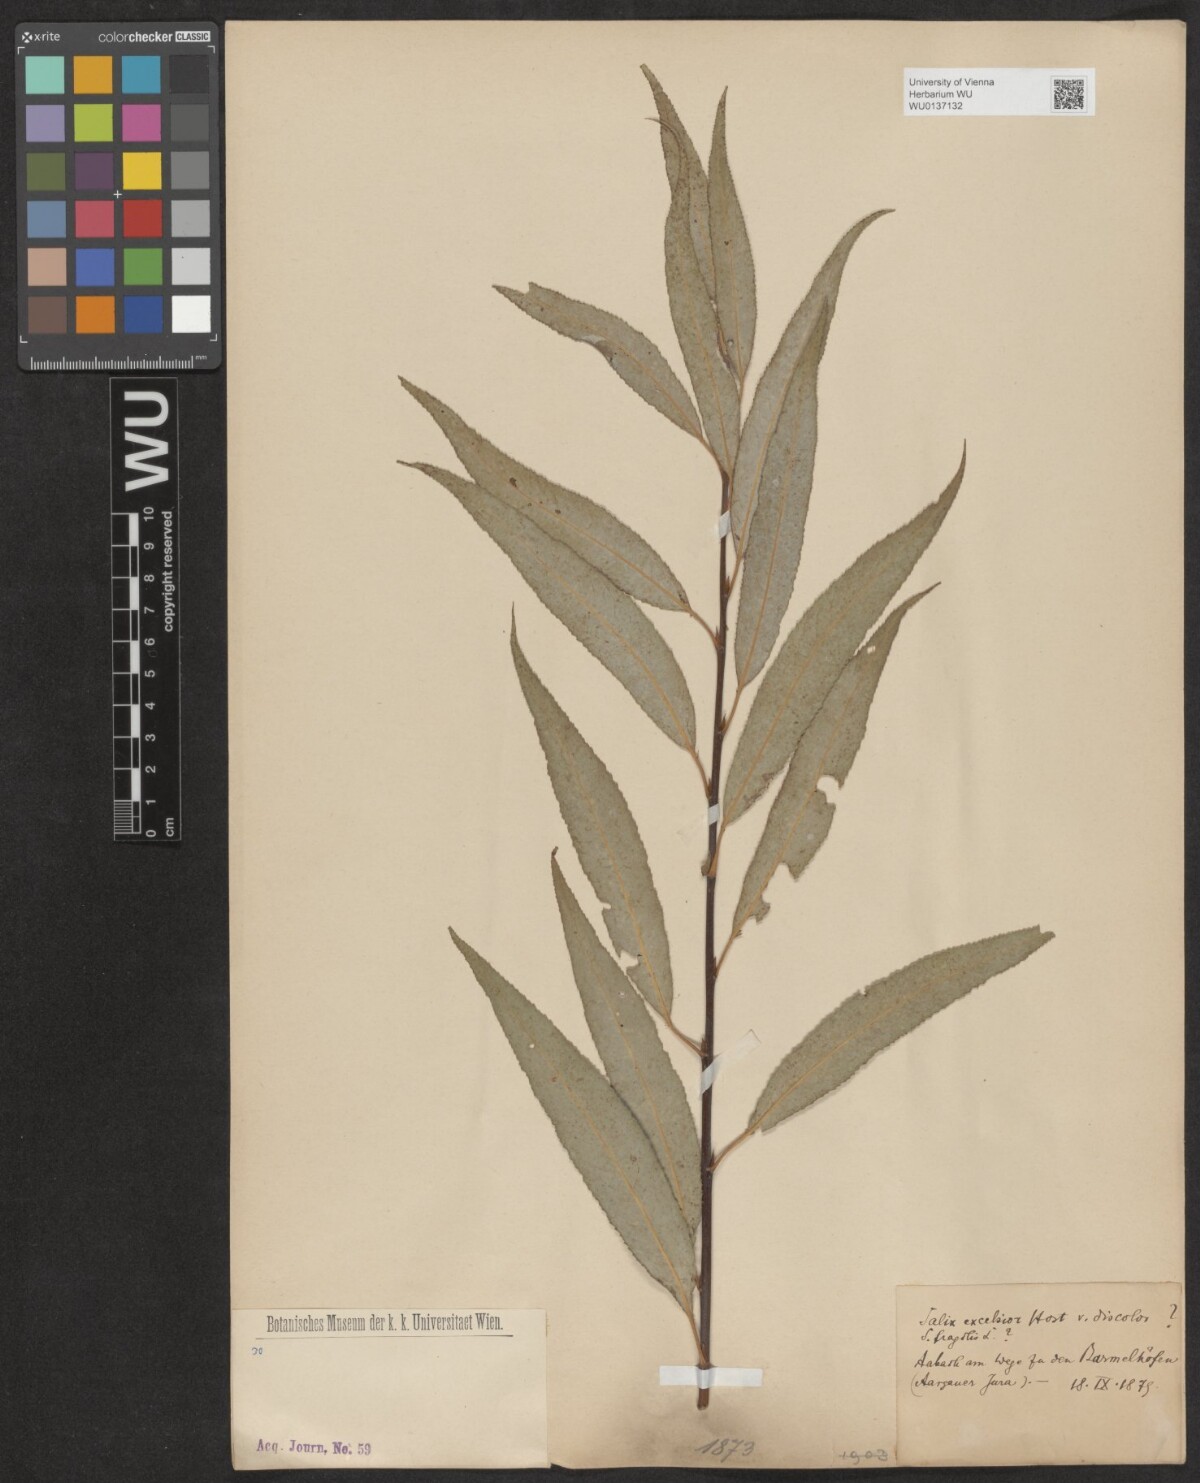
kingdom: Plantae
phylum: Tracheophyta
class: Magnoliopsida
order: Malpighiales
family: Salicaceae
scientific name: Salicaceae
